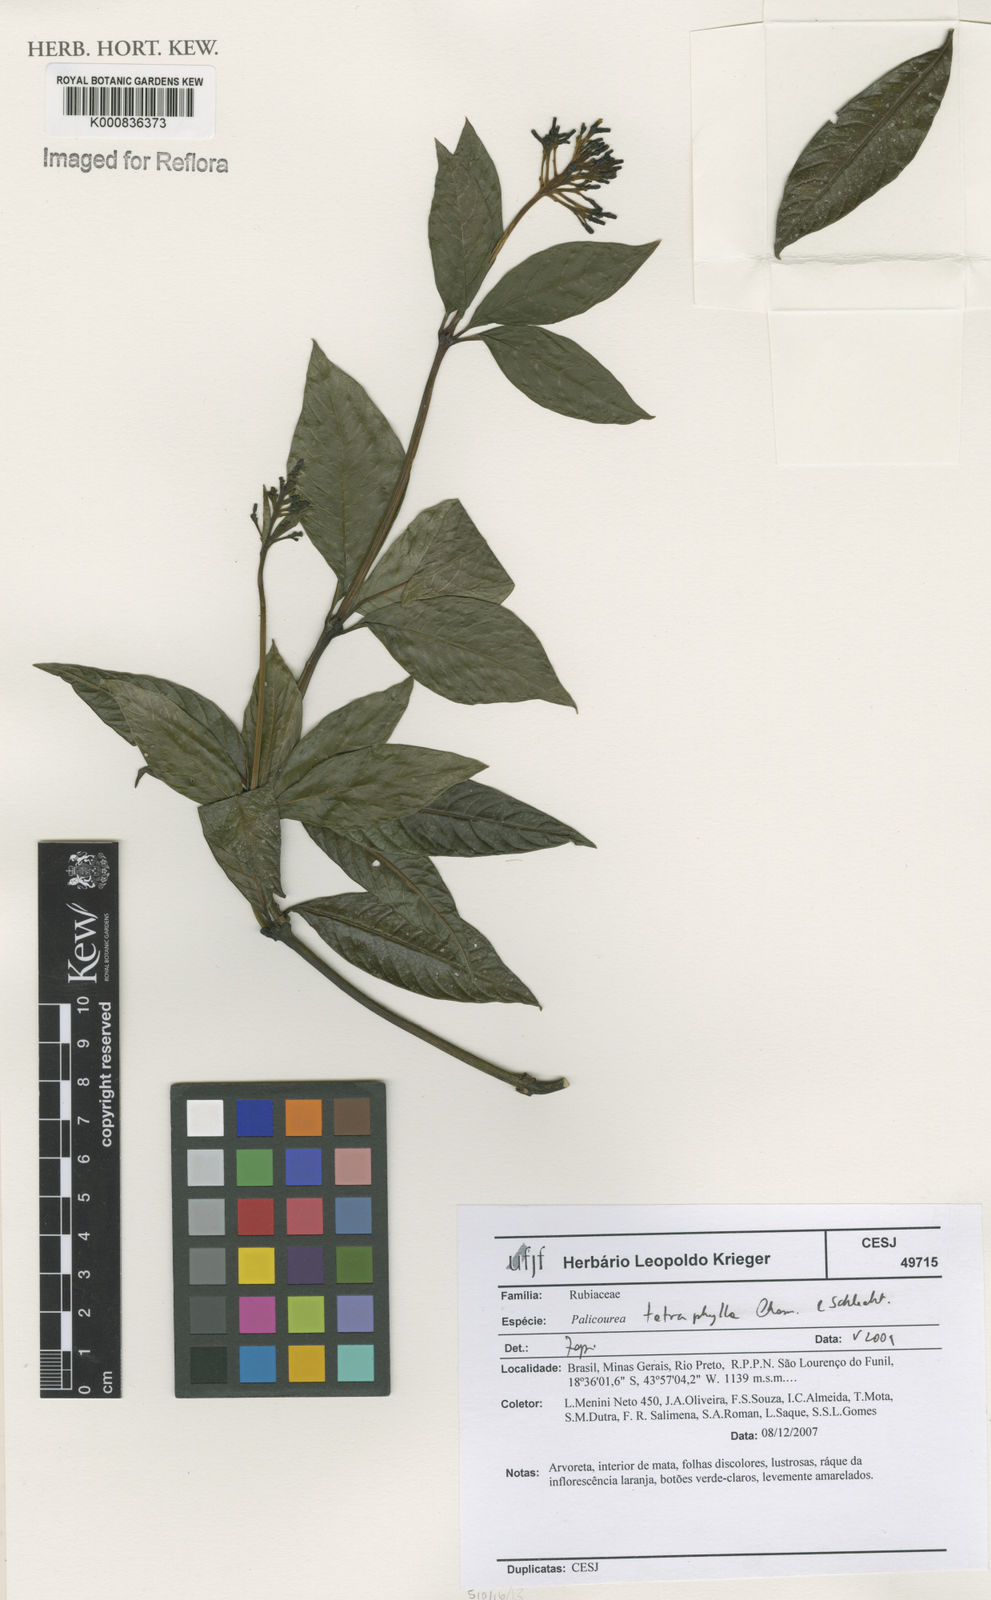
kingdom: Plantae
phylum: Tracheophyta
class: Magnoliopsida
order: Gentianales
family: Rubiaceae
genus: Palicourea
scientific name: Palicourea tetraphylla
